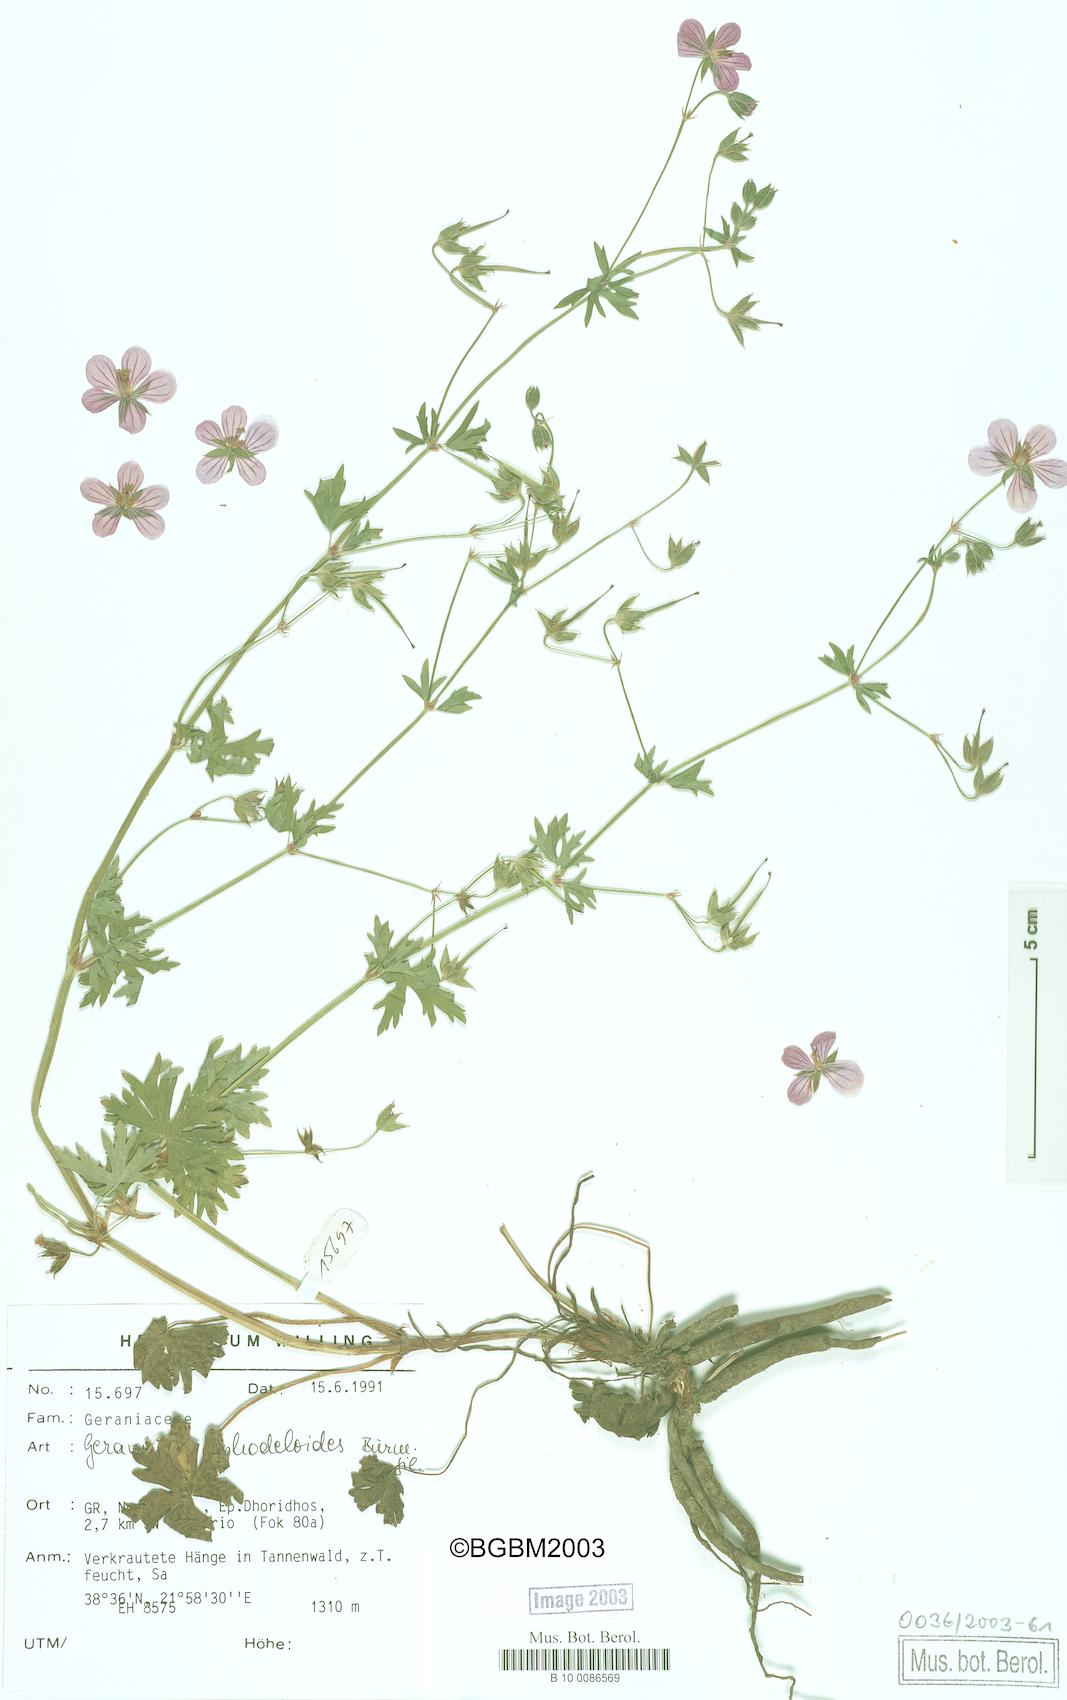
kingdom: Plantae
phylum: Tracheophyta
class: Magnoliopsida
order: Geraniales
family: Geraniaceae
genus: Geranium
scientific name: Geranium asphodeloides
